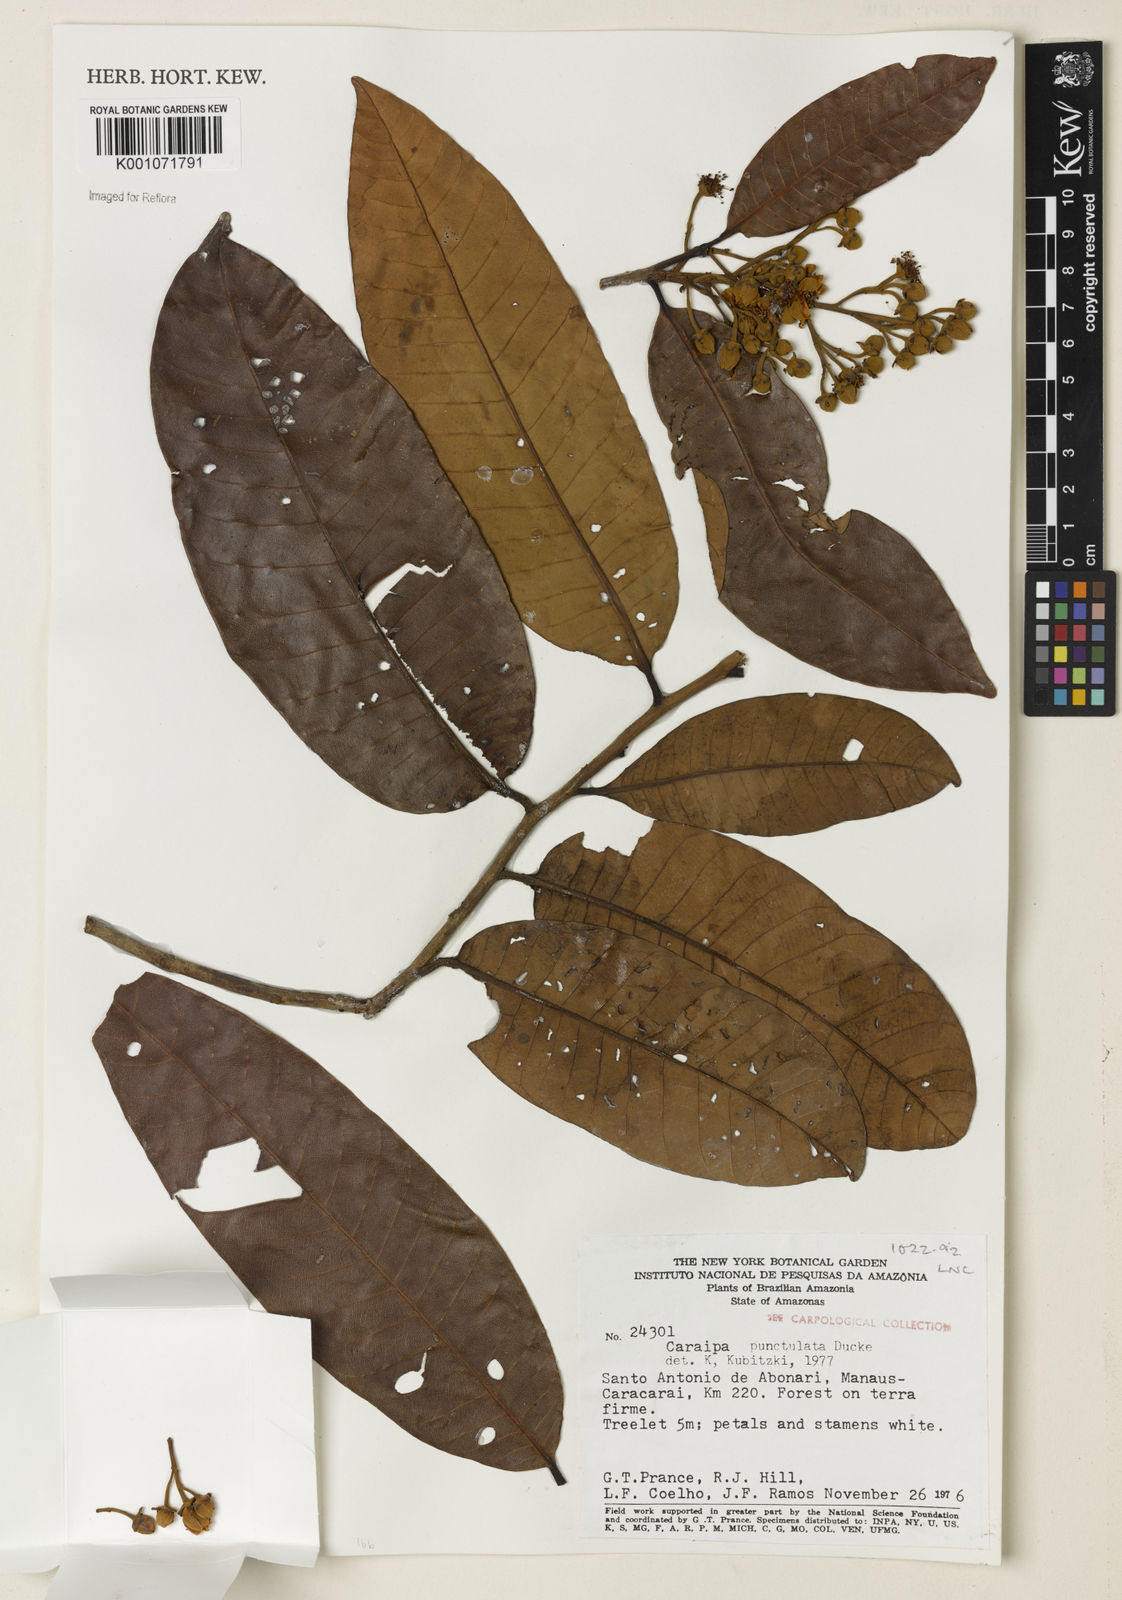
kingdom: Plantae
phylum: Tracheophyta
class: Magnoliopsida
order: Malpighiales
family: Calophyllaceae
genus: Caraipa
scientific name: Caraipa punctulata
